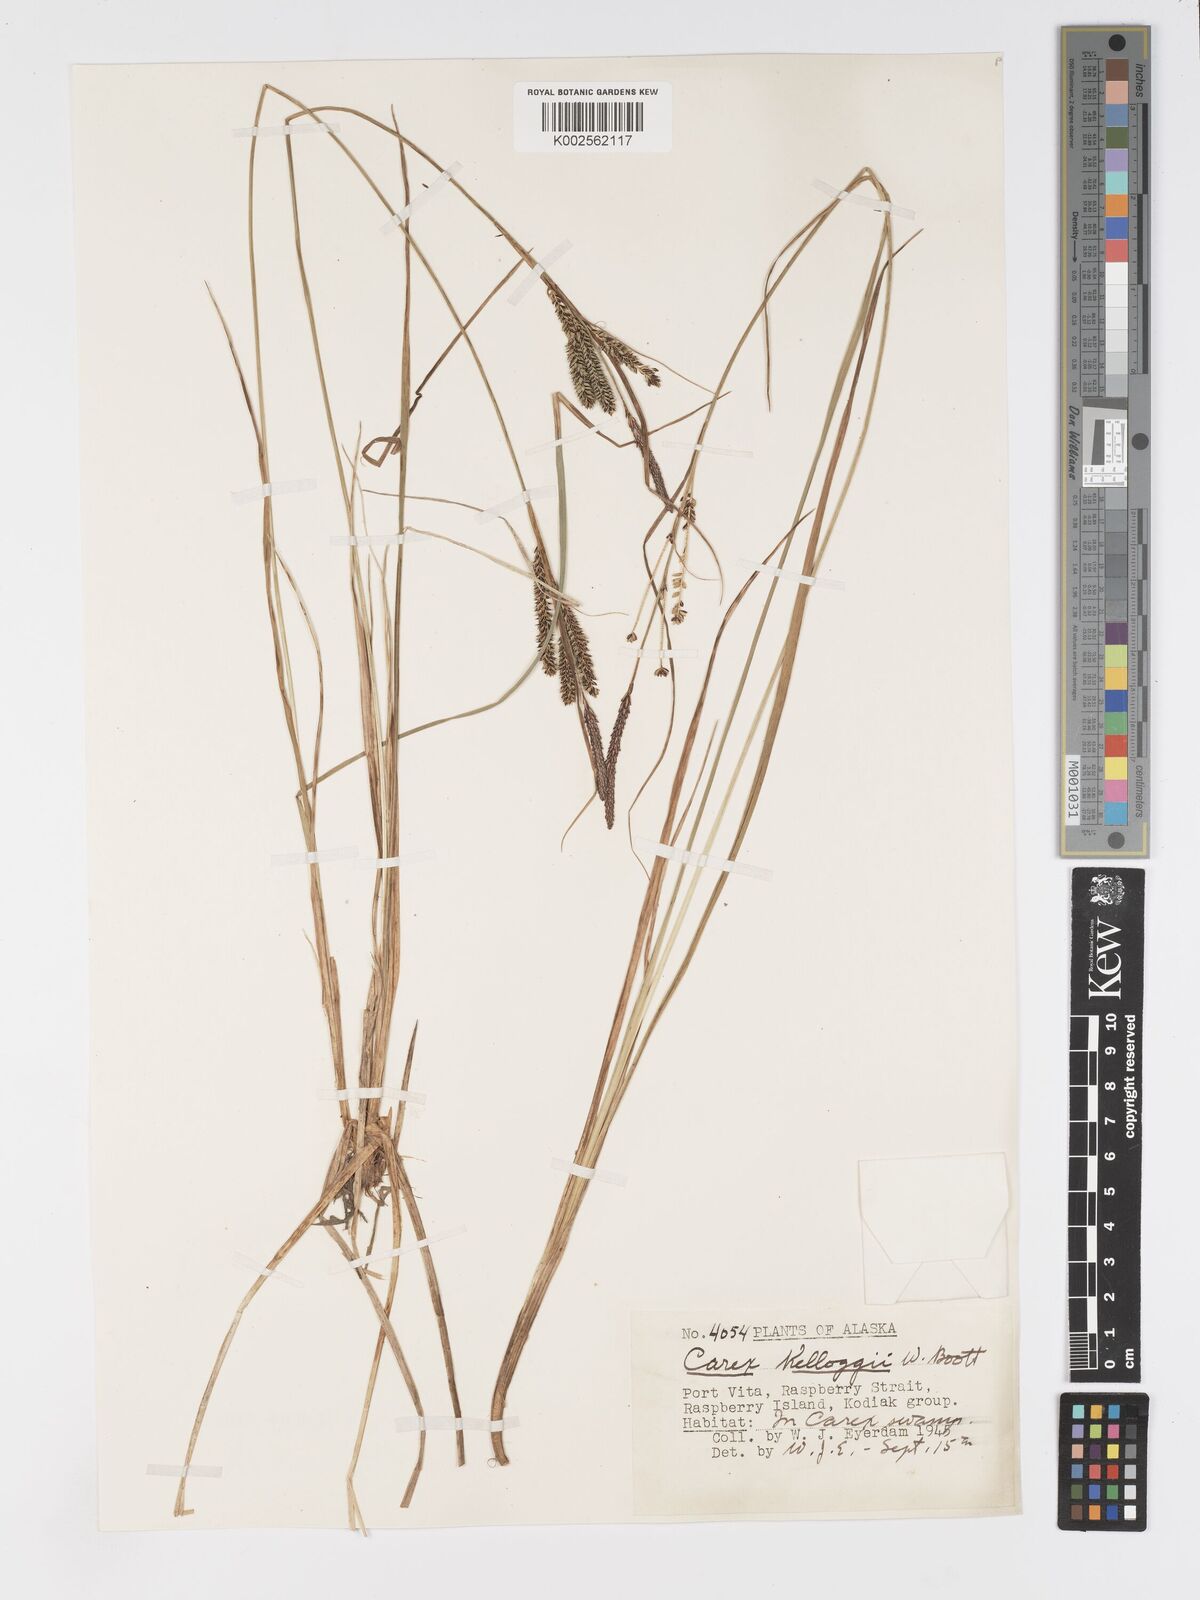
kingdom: Plantae
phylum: Tracheophyta
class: Liliopsida
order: Poales
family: Cyperaceae
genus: Carex
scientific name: Carex kelloggii
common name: Kellogg's sedge
